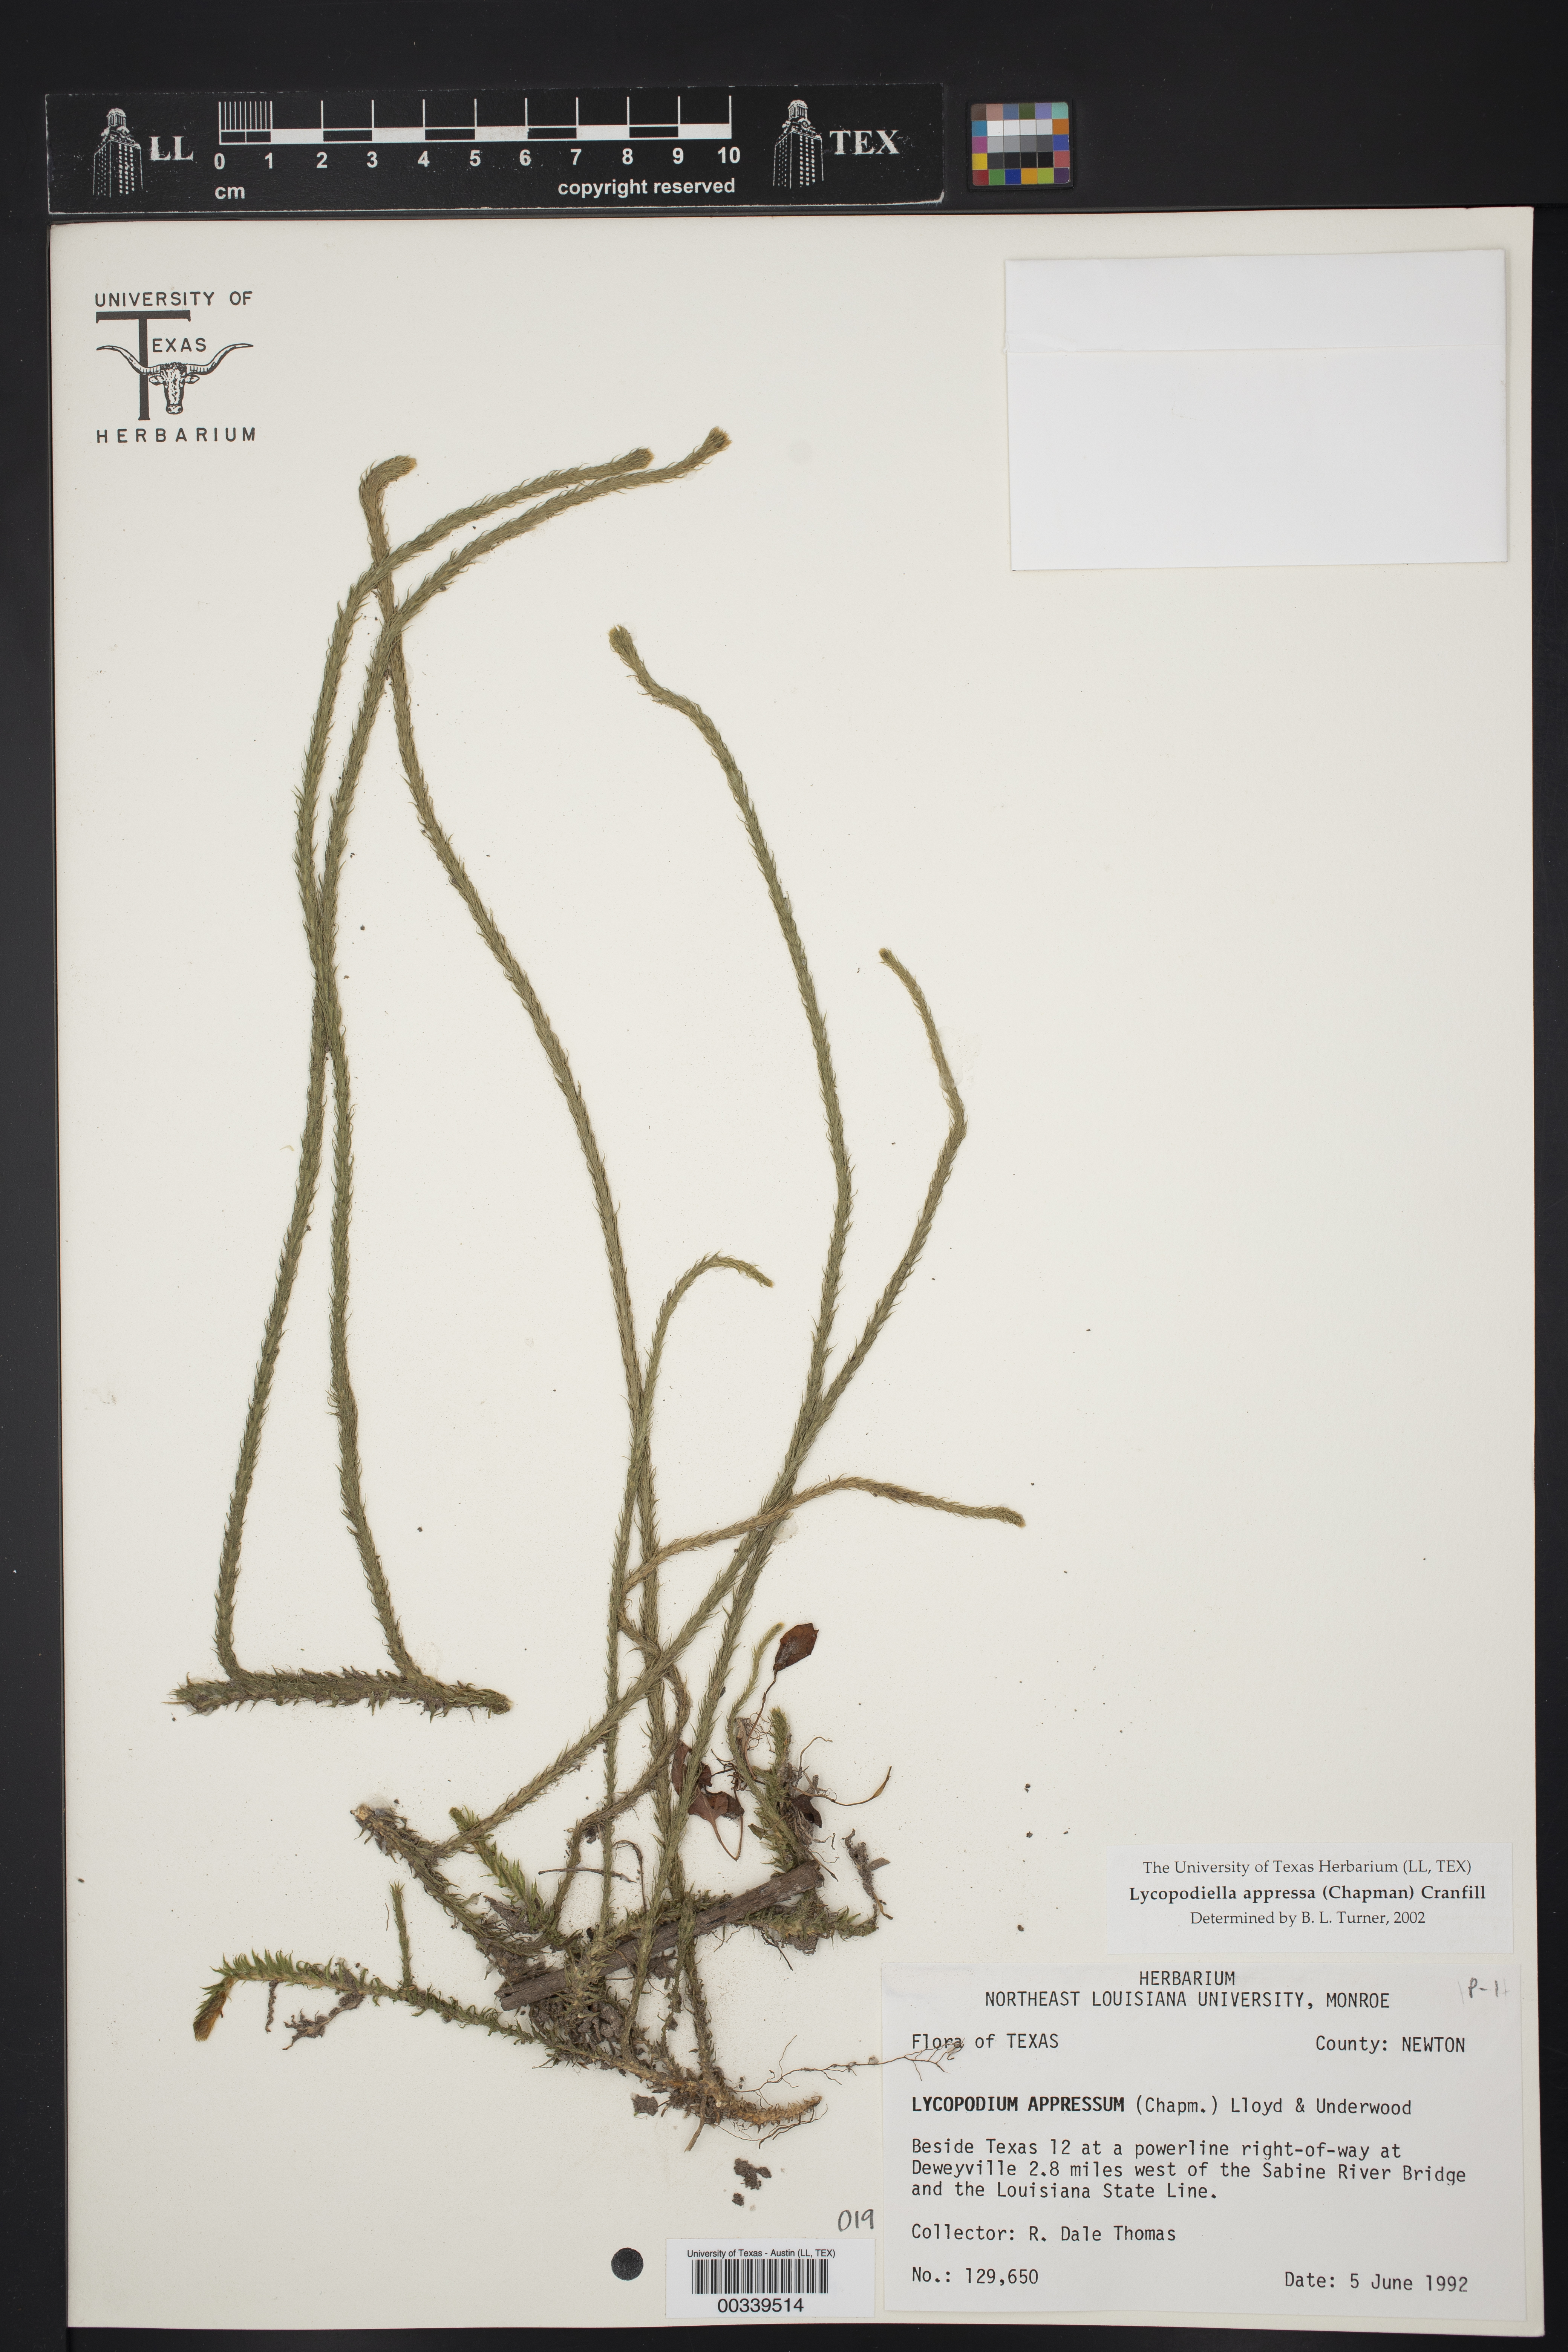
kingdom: Plantae
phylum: Tracheophyta
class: Lycopodiopsida
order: Lycopodiales
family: Lycopodiaceae
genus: Lycopodiella
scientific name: Lycopodiella appressa
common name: Appressed bog clubmoss
